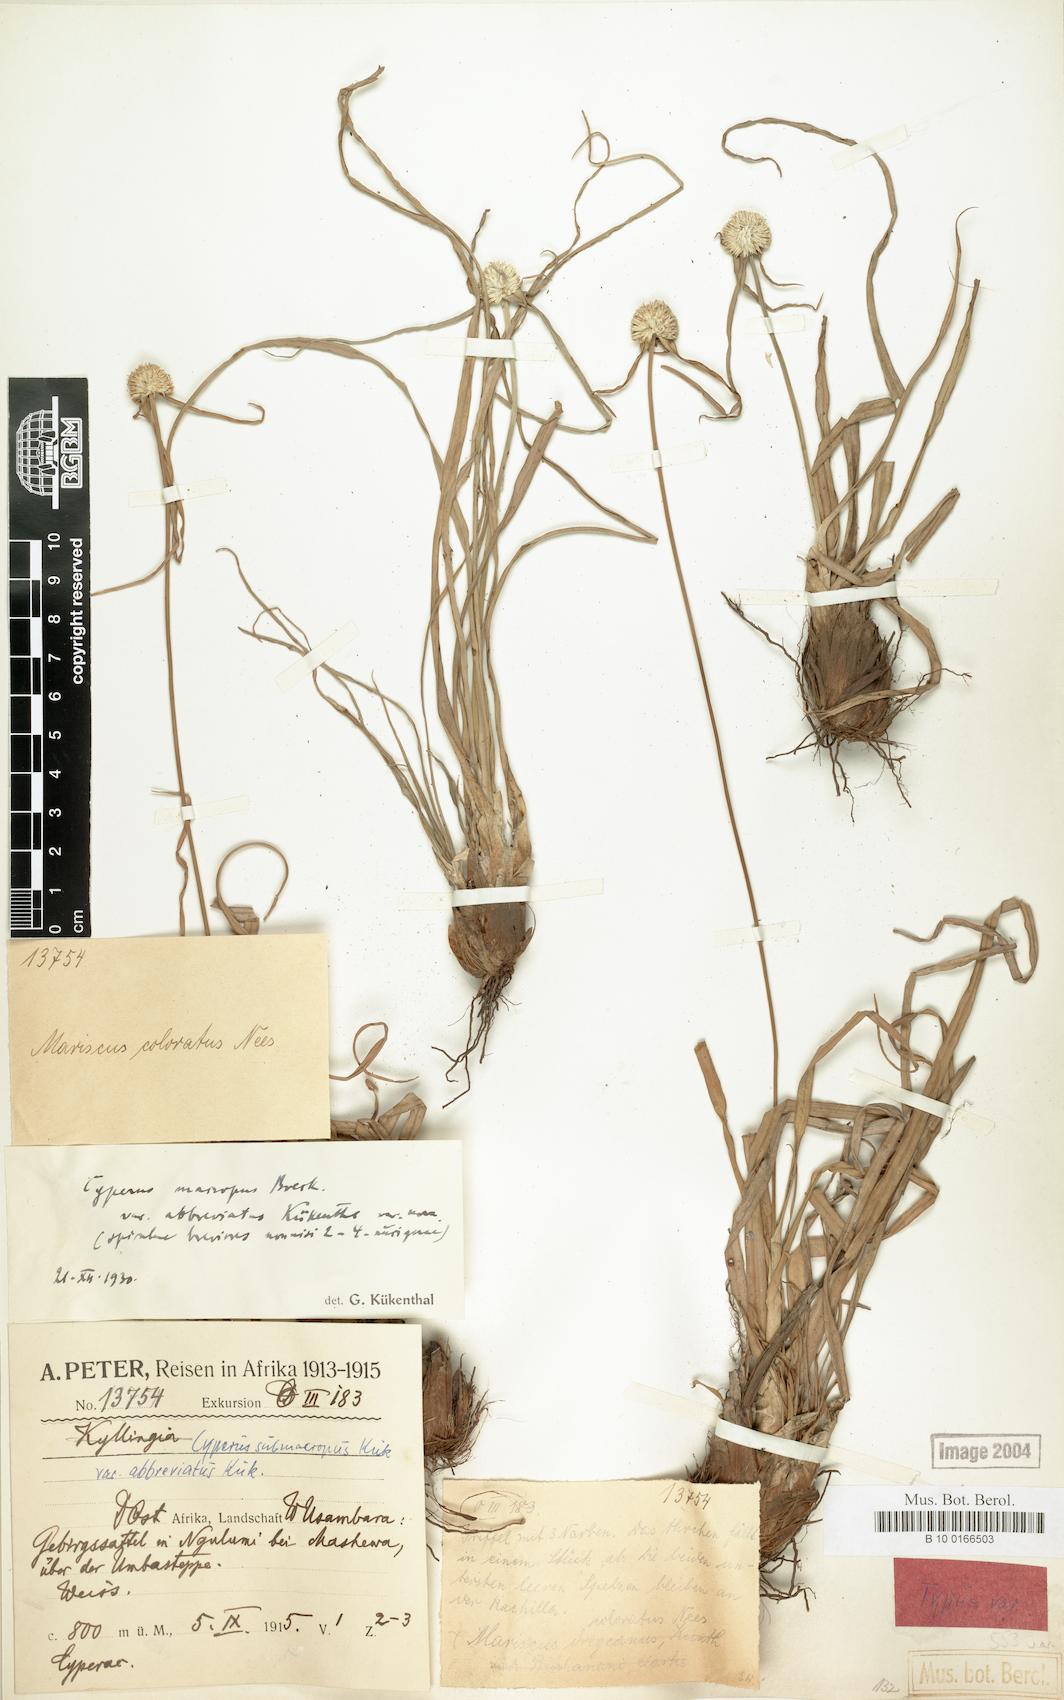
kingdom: Plantae
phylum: Tracheophyta
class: Liliopsida
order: Poales
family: Cyperaceae
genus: Cyperus
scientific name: Cyperus mollipes
